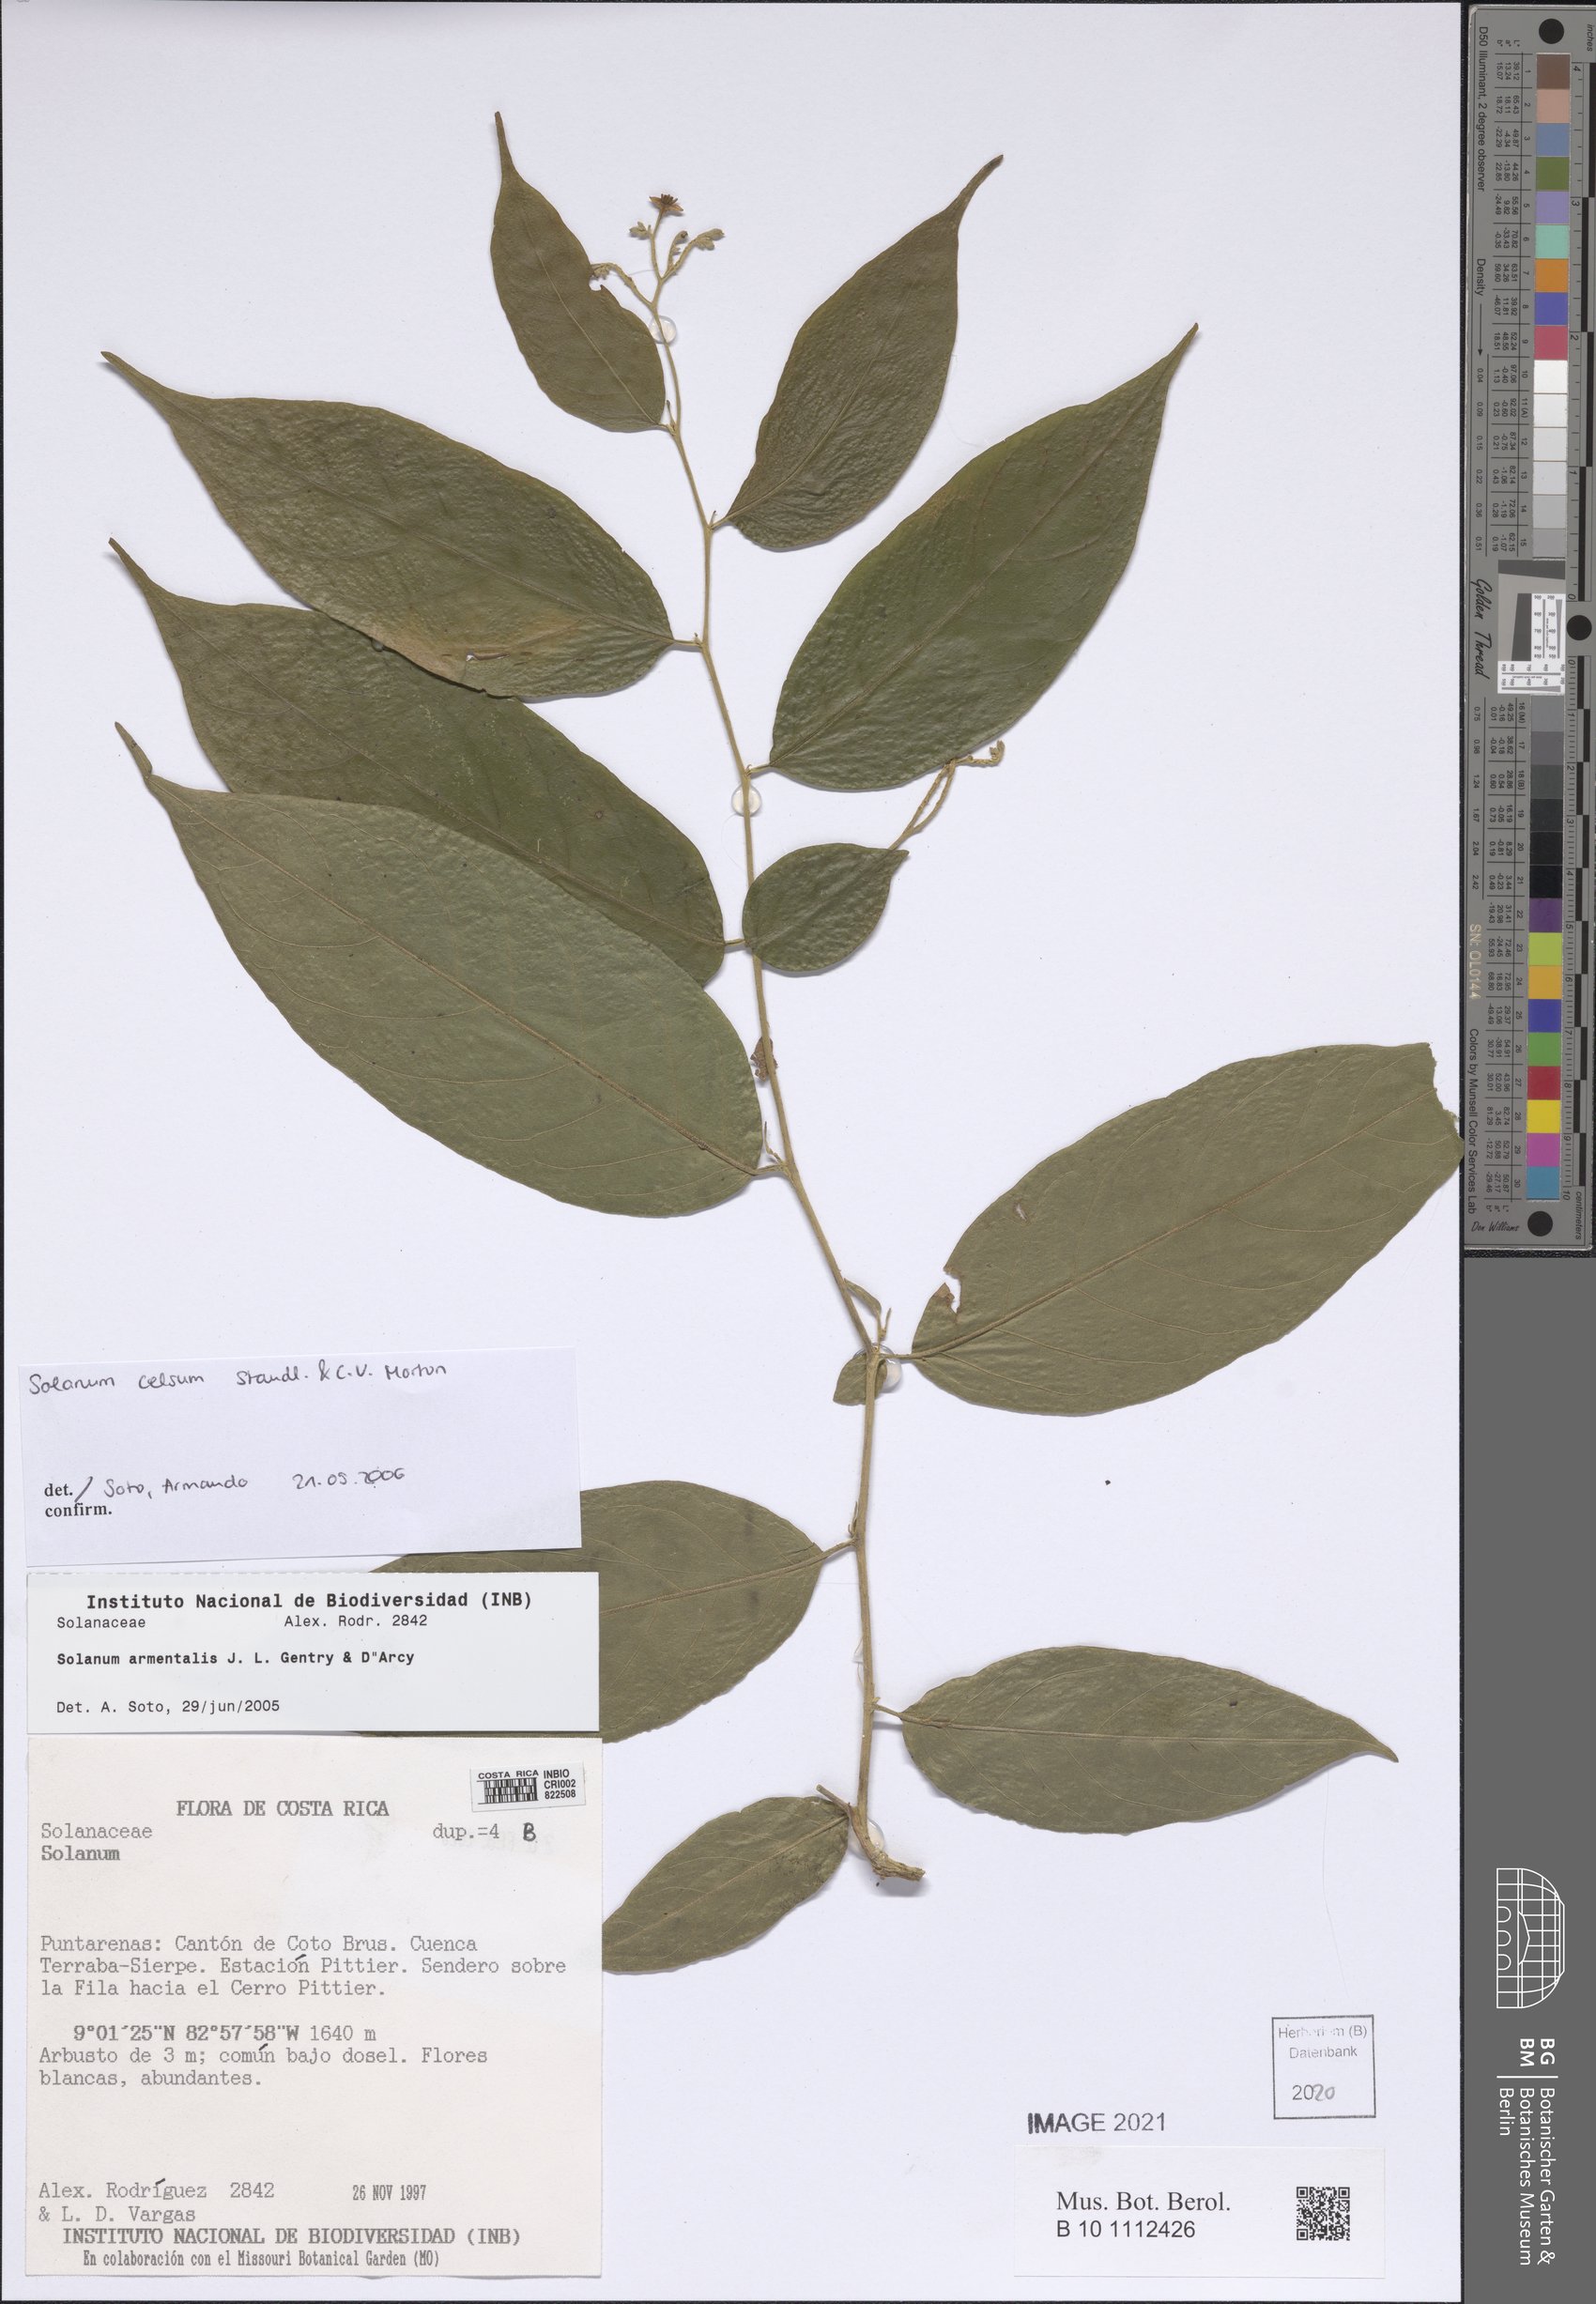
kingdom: Plantae
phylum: Tracheophyta
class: Magnoliopsida
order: Solanales
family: Solanaceae
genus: Solanum
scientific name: Solanum celsum
